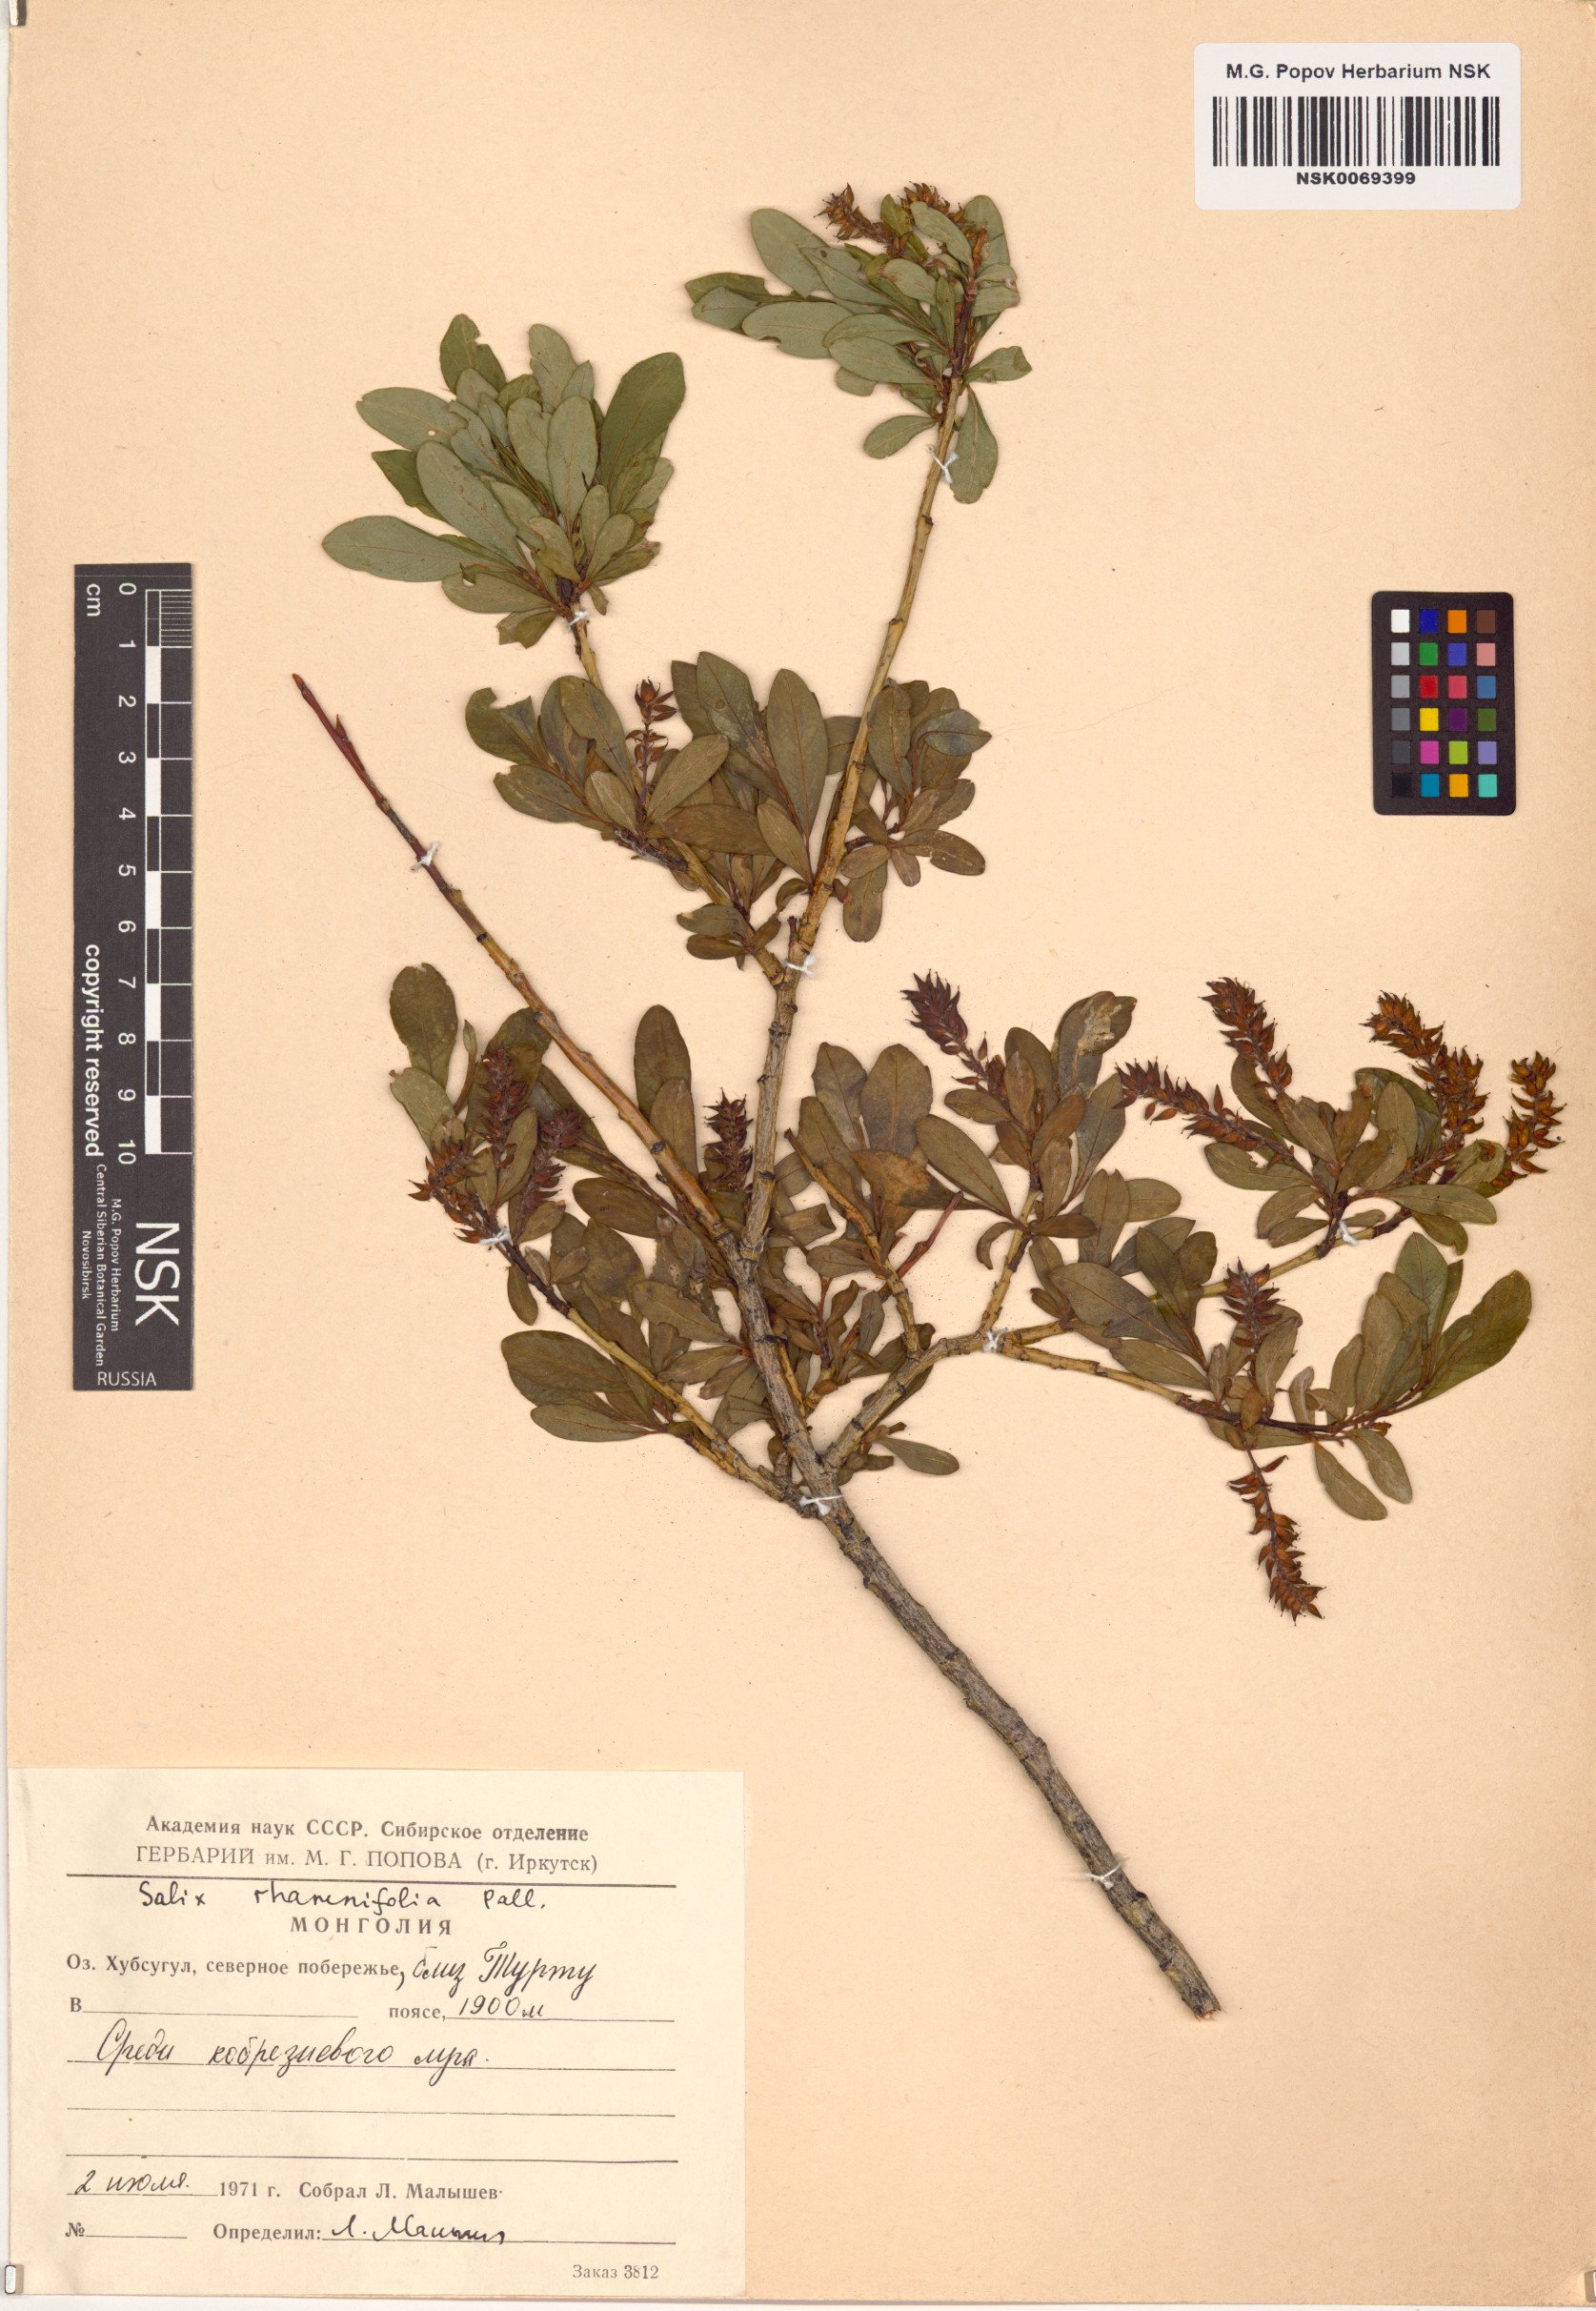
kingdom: Plantae
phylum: Tracheophyta
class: Magnoliopsida
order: Malpighiales
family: Salicaceae
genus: Salix
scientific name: Salix rhamnifolia
